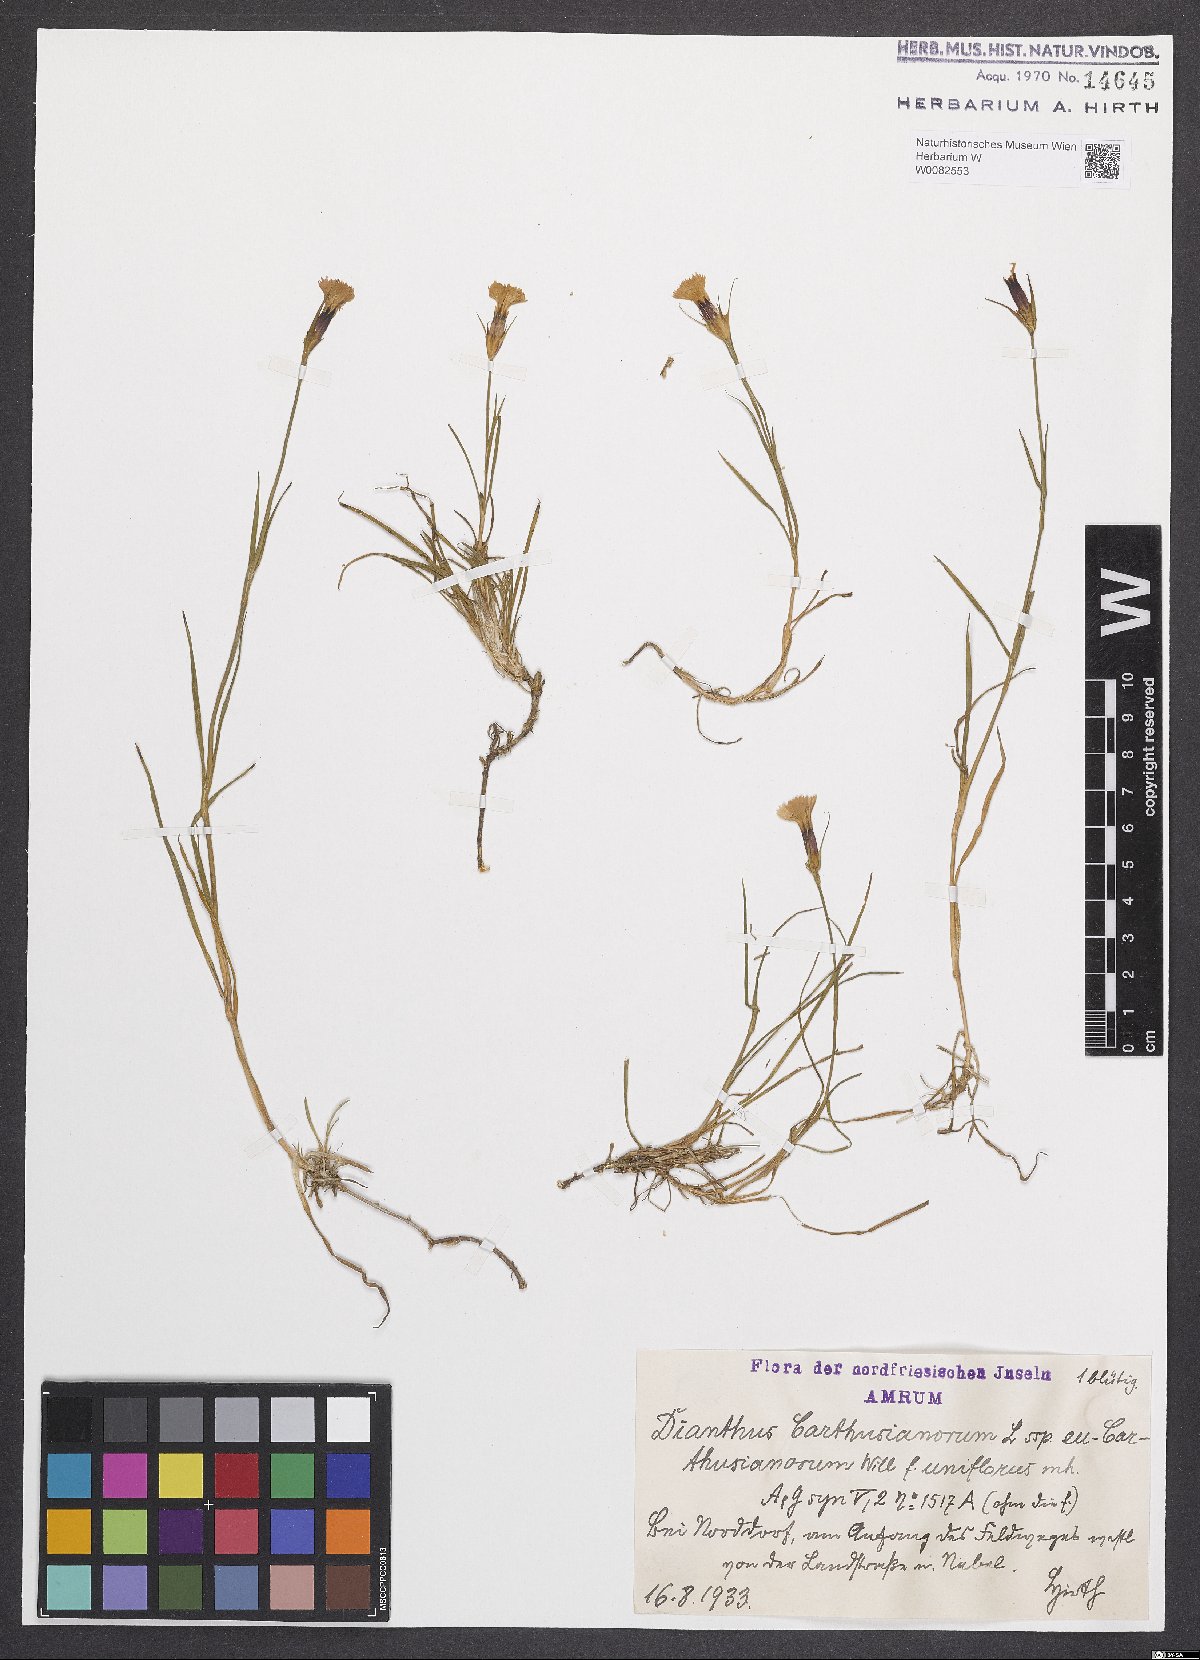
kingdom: Plantae
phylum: Tracheophyta
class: Magnoliopsida
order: Caryophyllales
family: Caryophyllaceae
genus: Dianthus
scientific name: Dianthus carthusianorum
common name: Carthusian pink
